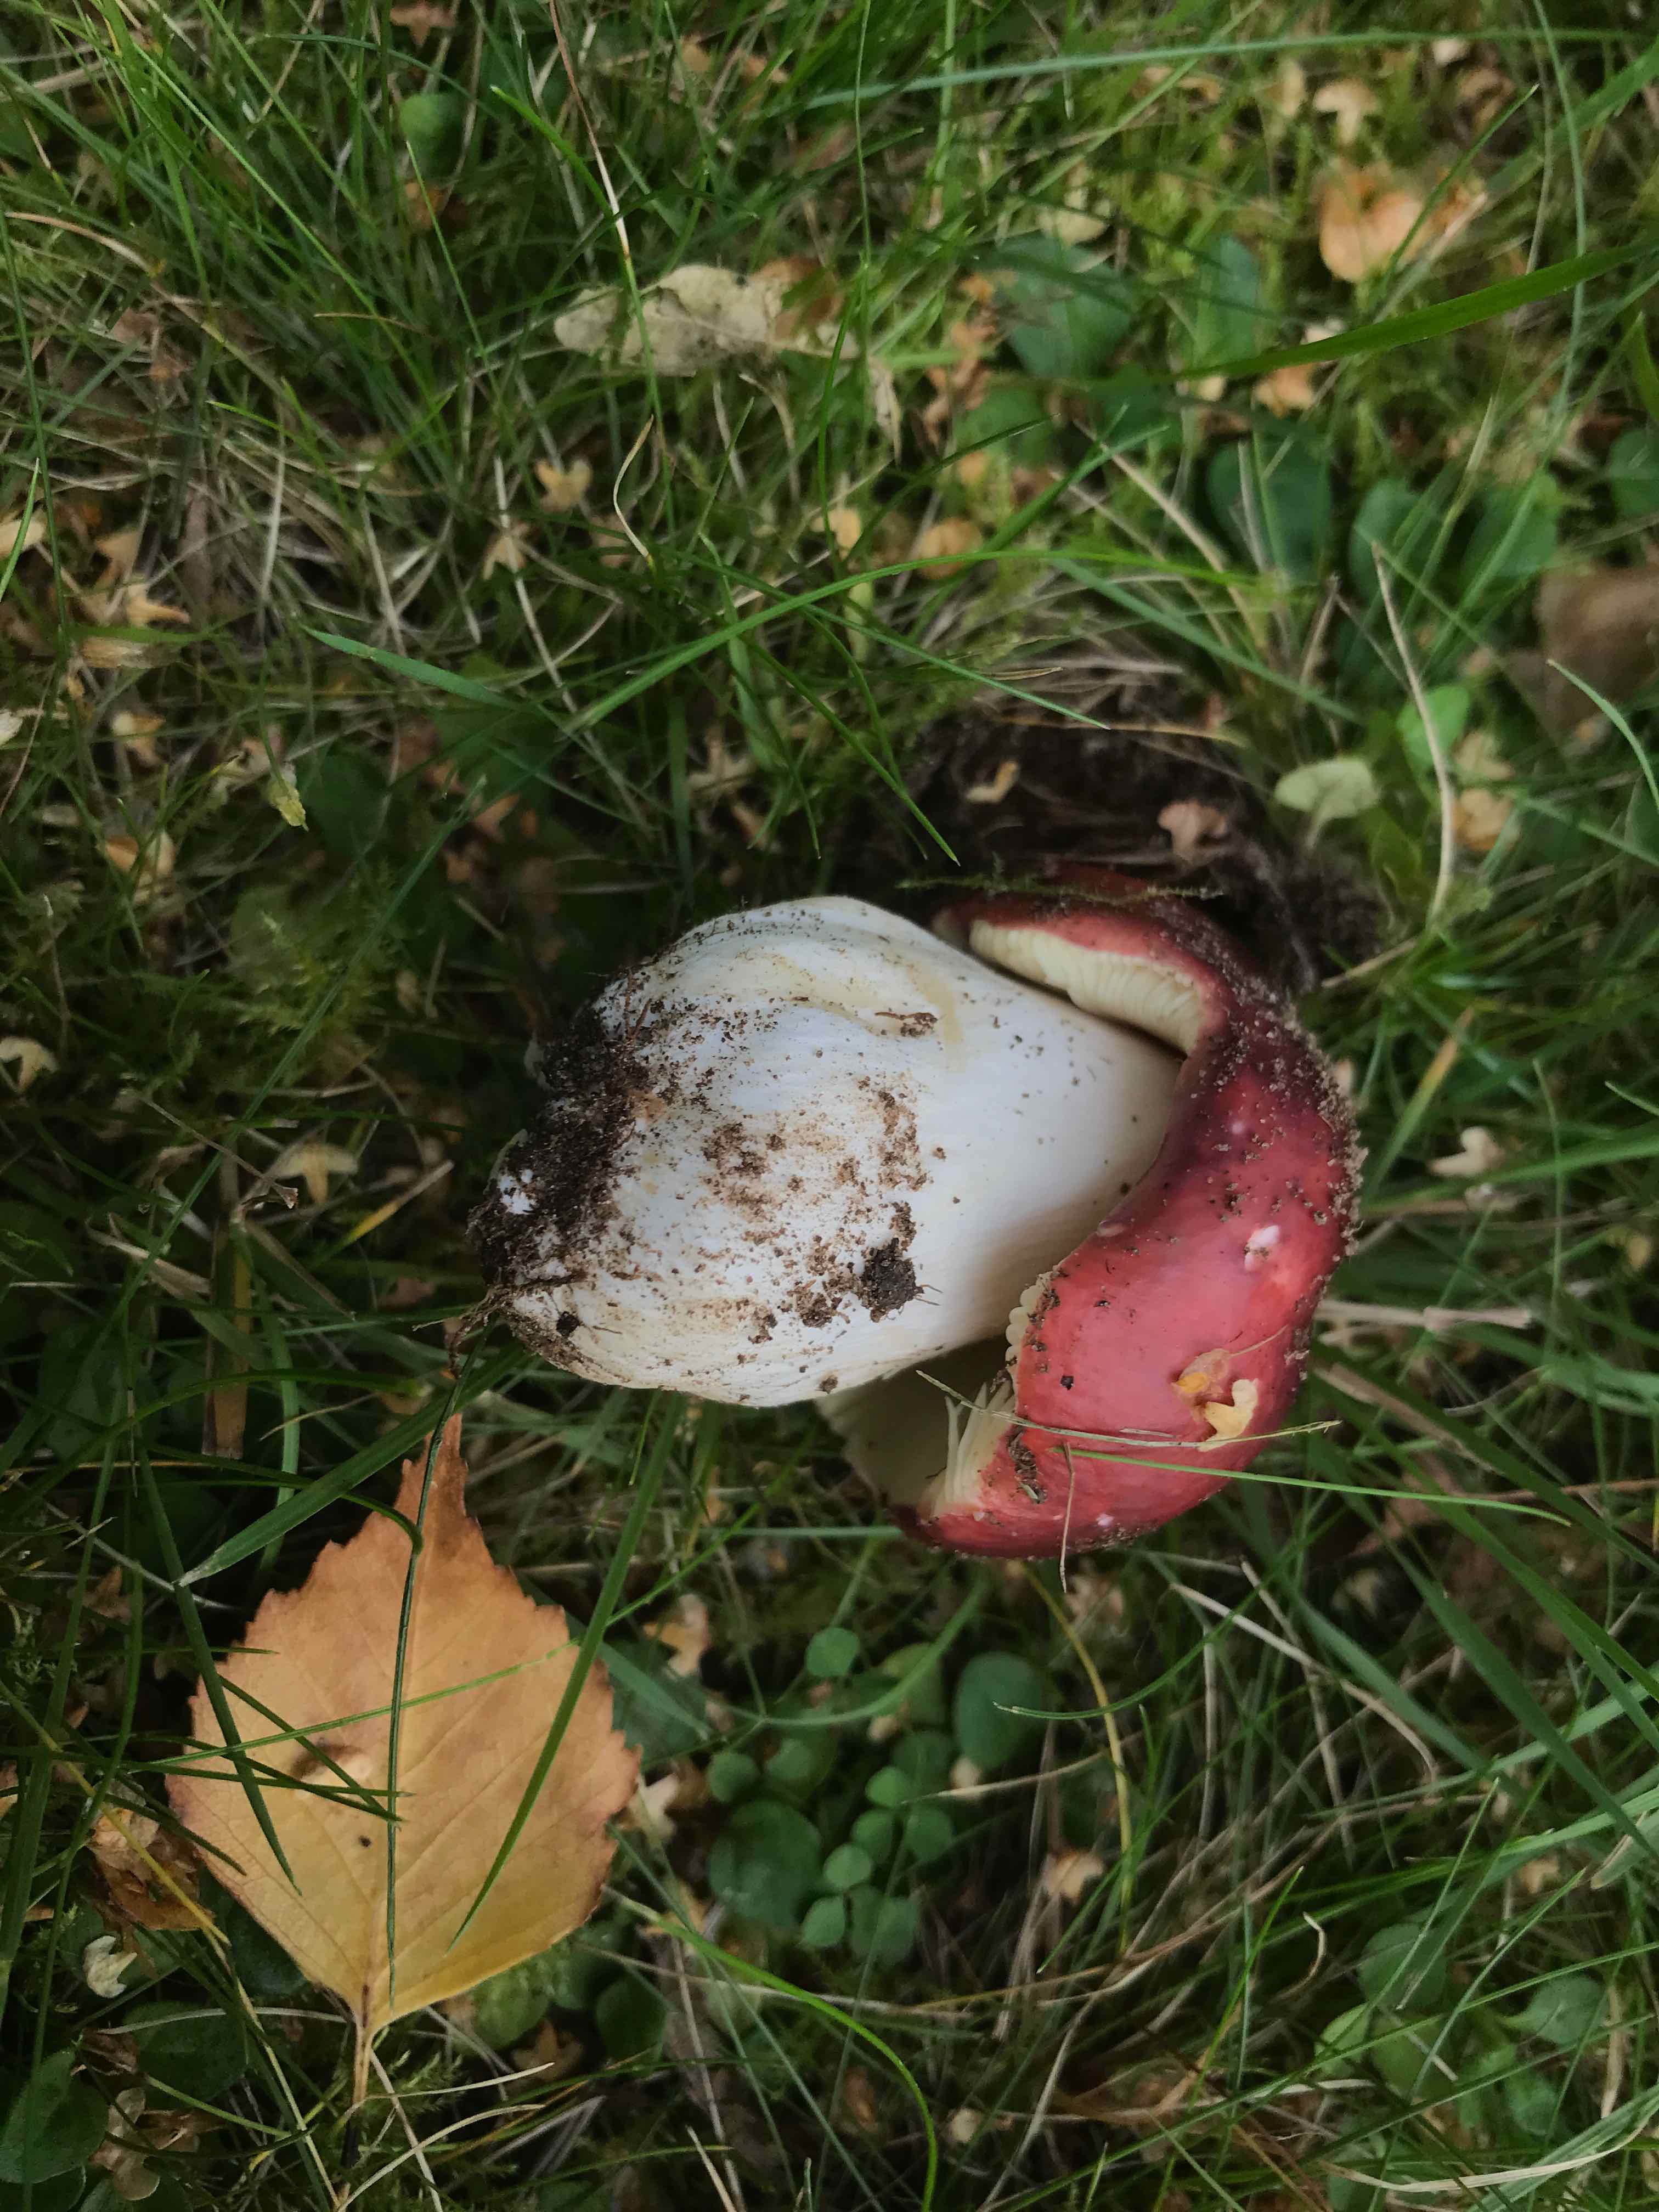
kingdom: Fungi
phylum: Basidiomycota
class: Agaricomycetes
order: Russulales
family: Russulaceae
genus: Russula
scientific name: Russula atropurpurea
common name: purpurbroget skørhat
